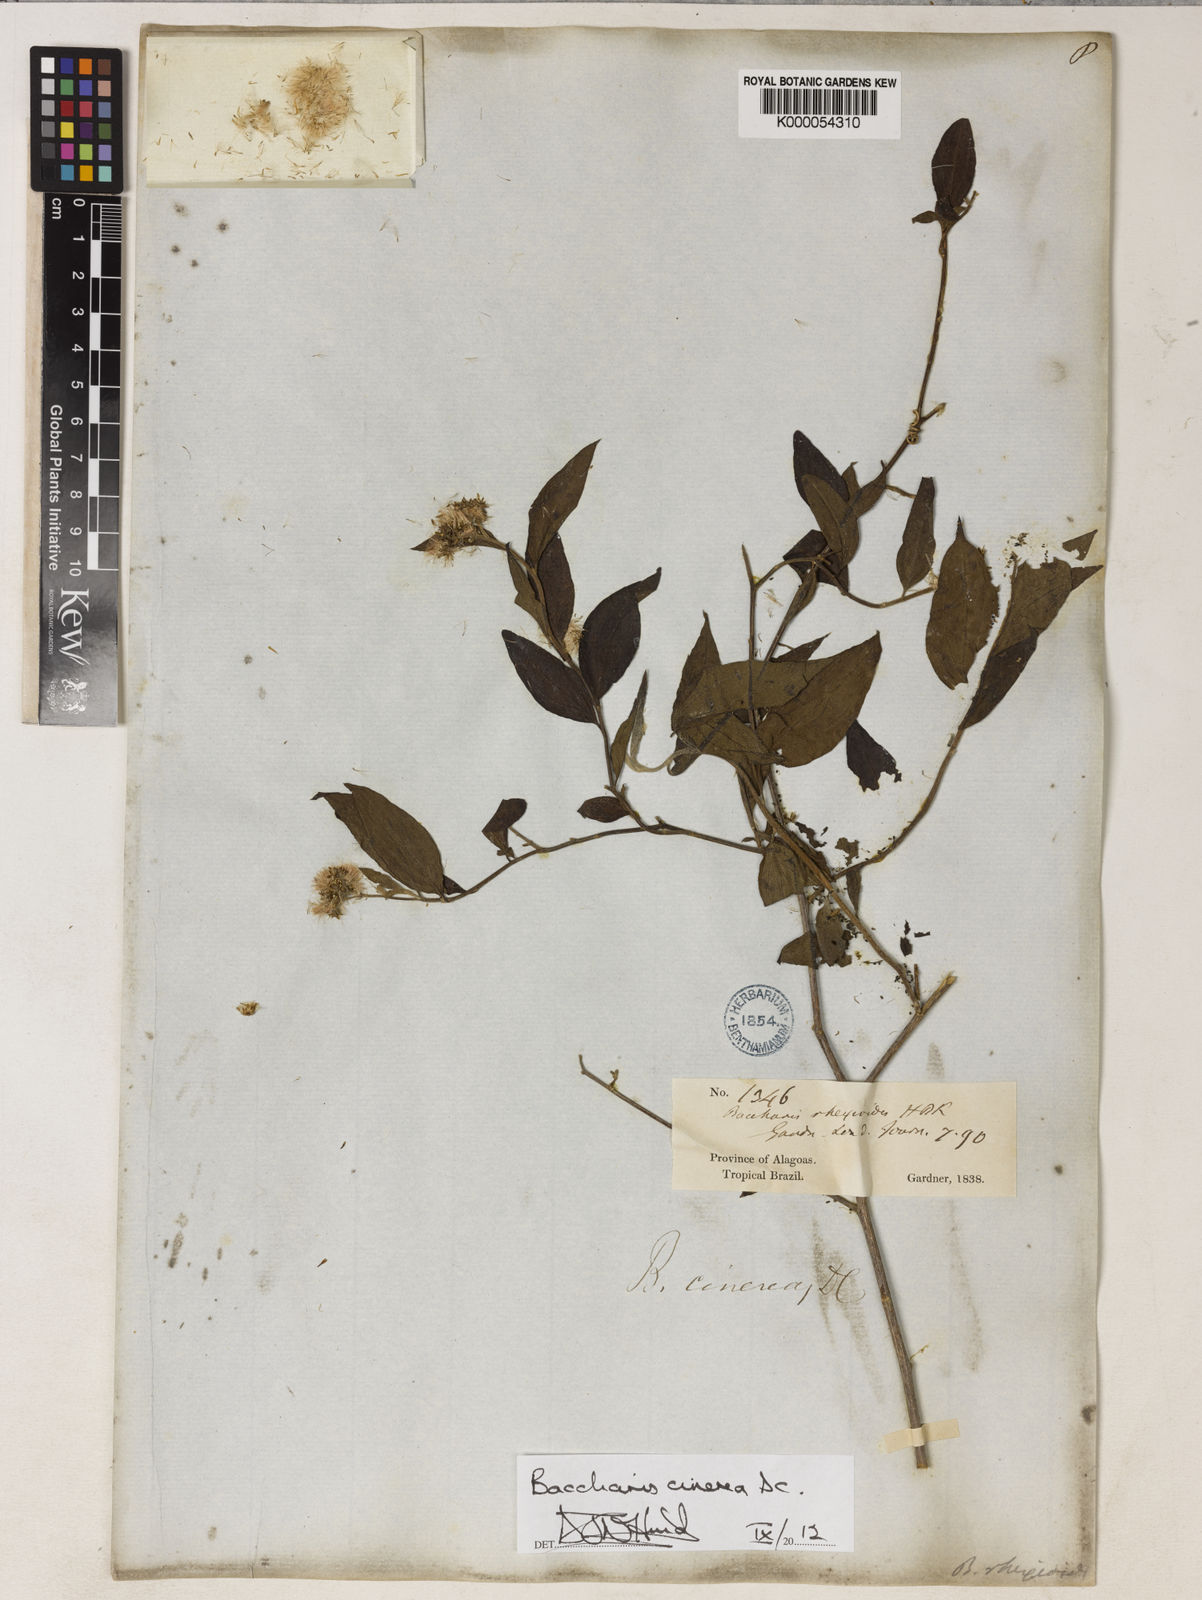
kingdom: Plantae
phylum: Tracheophyta
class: Magnoliopsida
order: Asterales
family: Asteraceae
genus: Baccharis
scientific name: Baccharis trinervis
